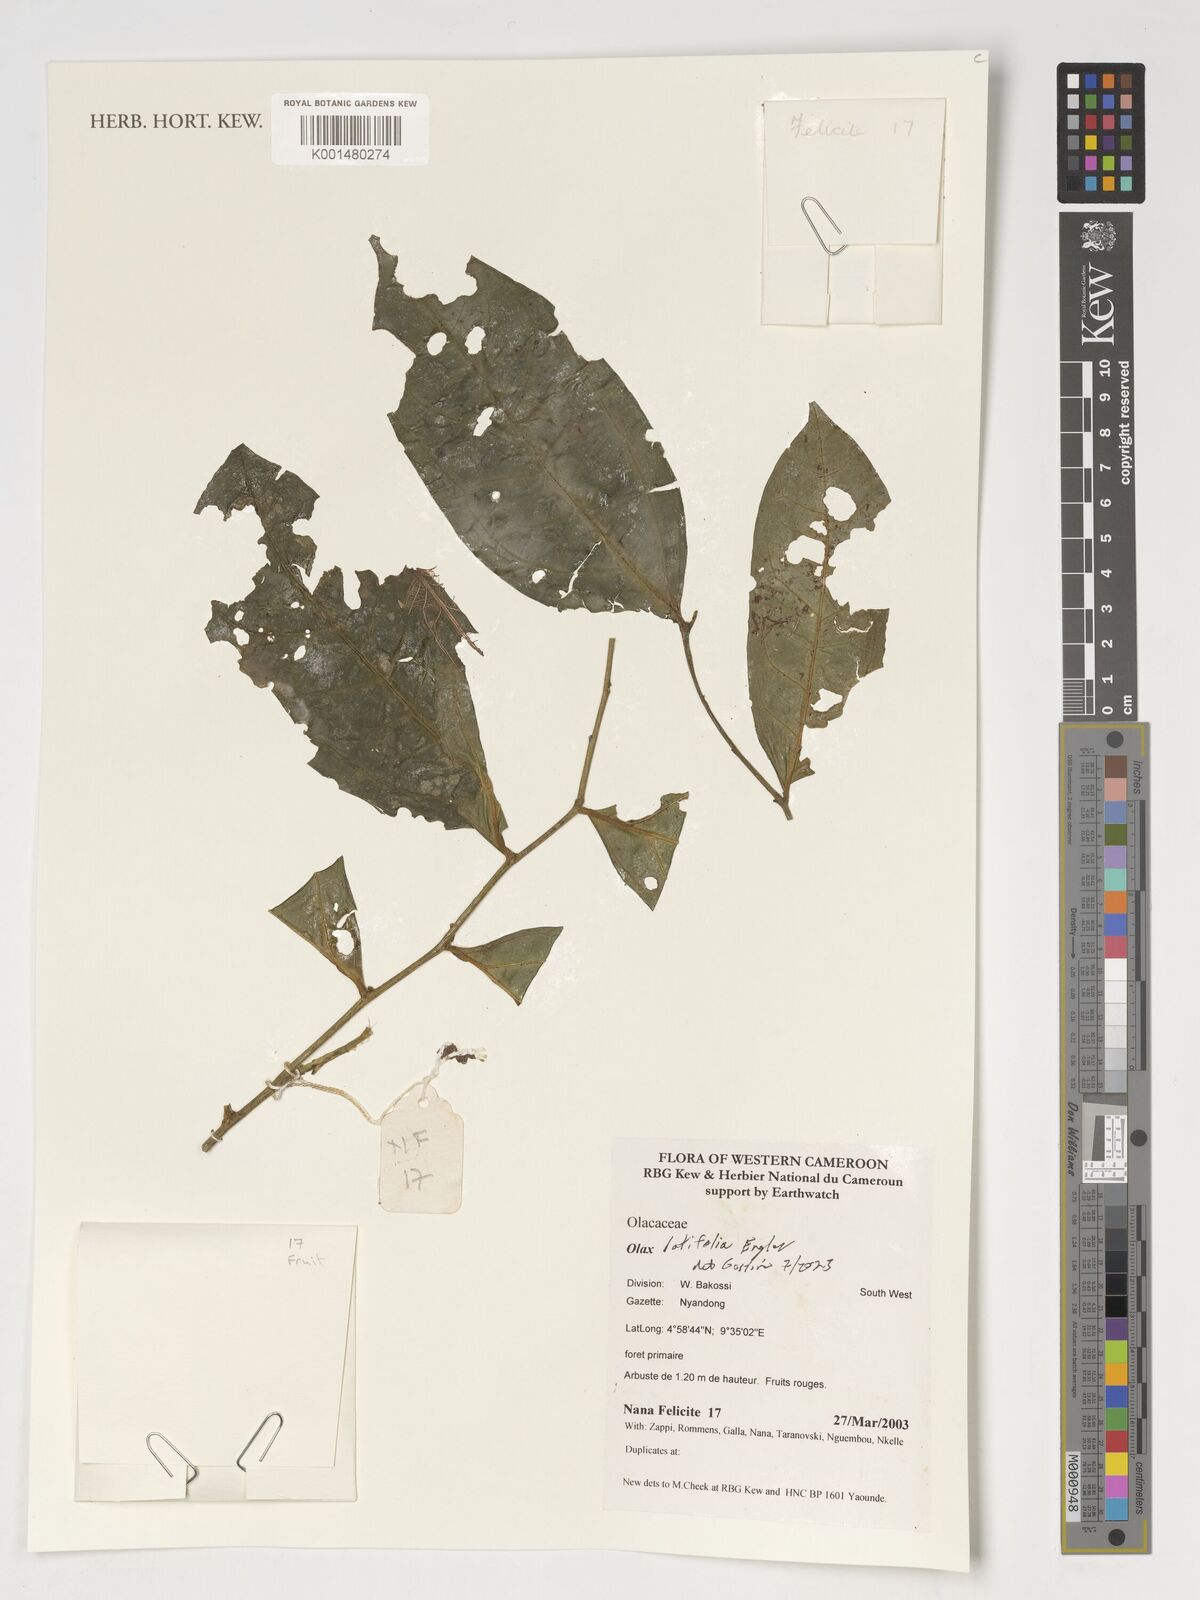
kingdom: Plantae
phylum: Tracheophyta
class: Magnoliopsida
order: Santalales
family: Olacaceae
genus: Olax
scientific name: Olax latifolia
